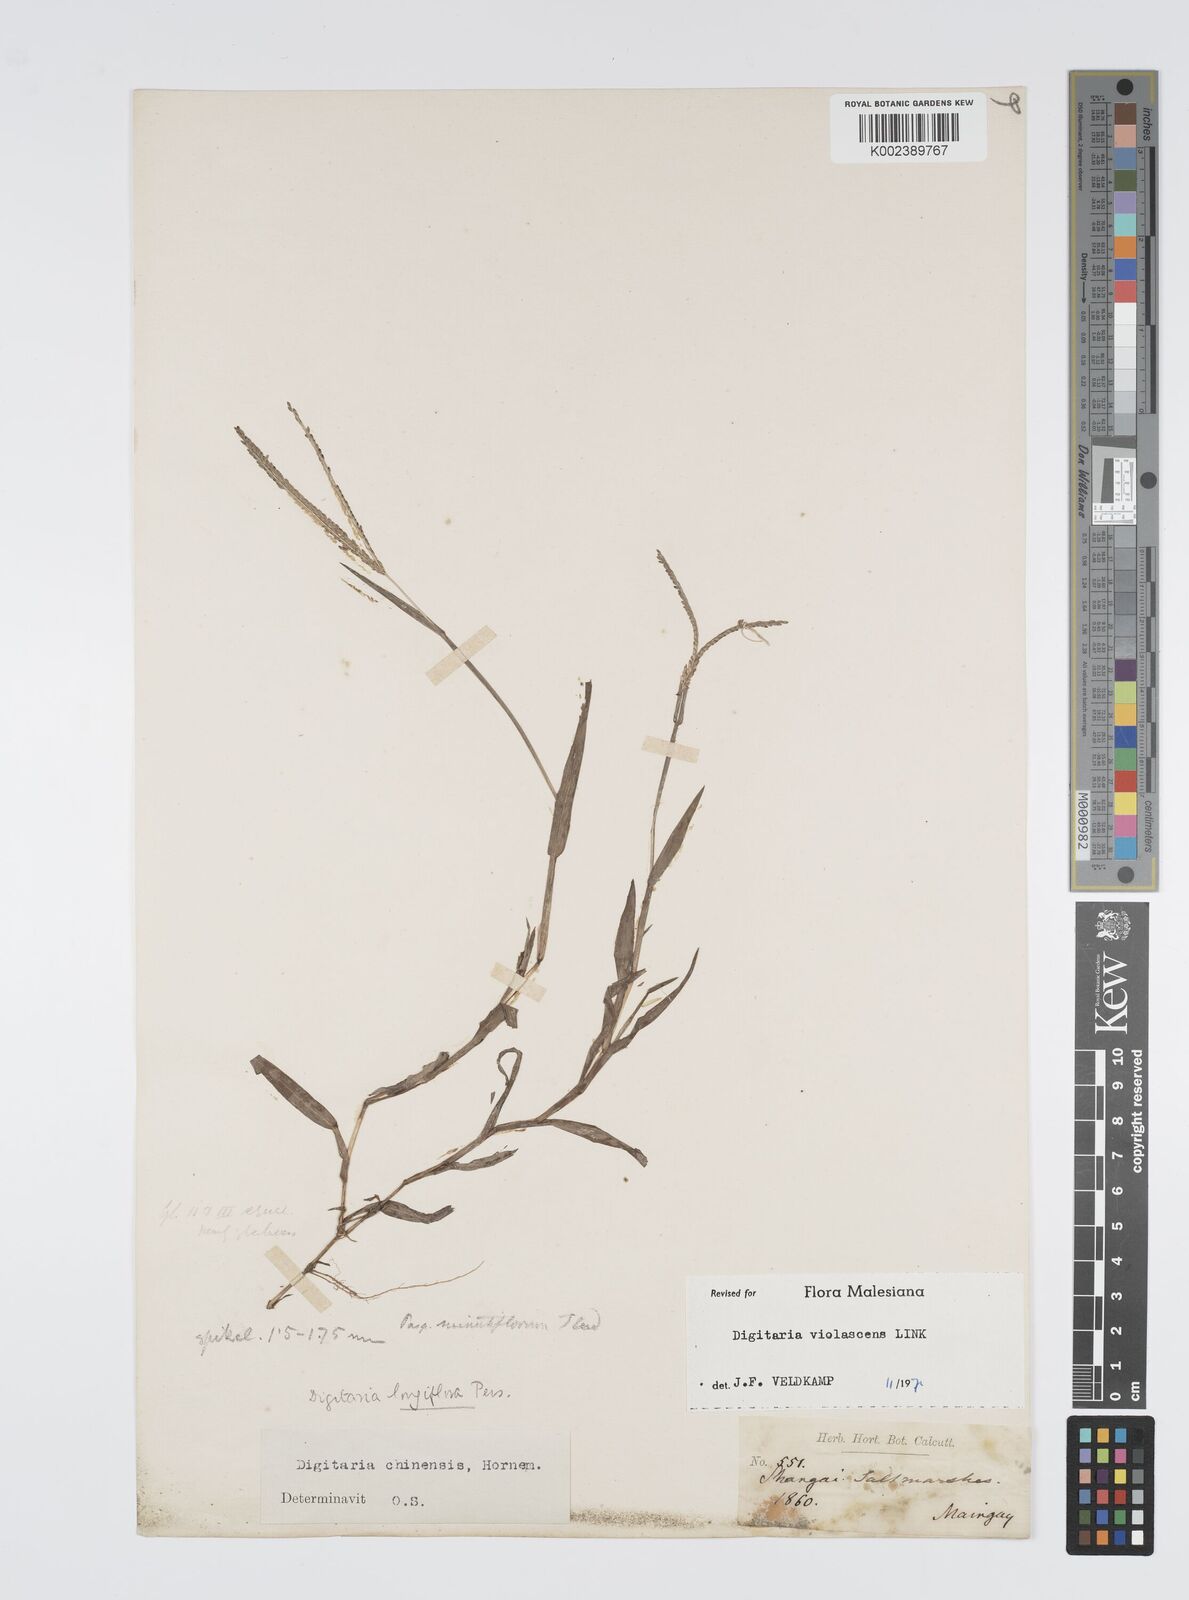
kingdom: Plantae
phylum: Tracheophyta
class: Liliopsida
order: Poales
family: Poaceae
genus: Digitaria
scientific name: Digitaria violascens
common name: Violet crabgrass
